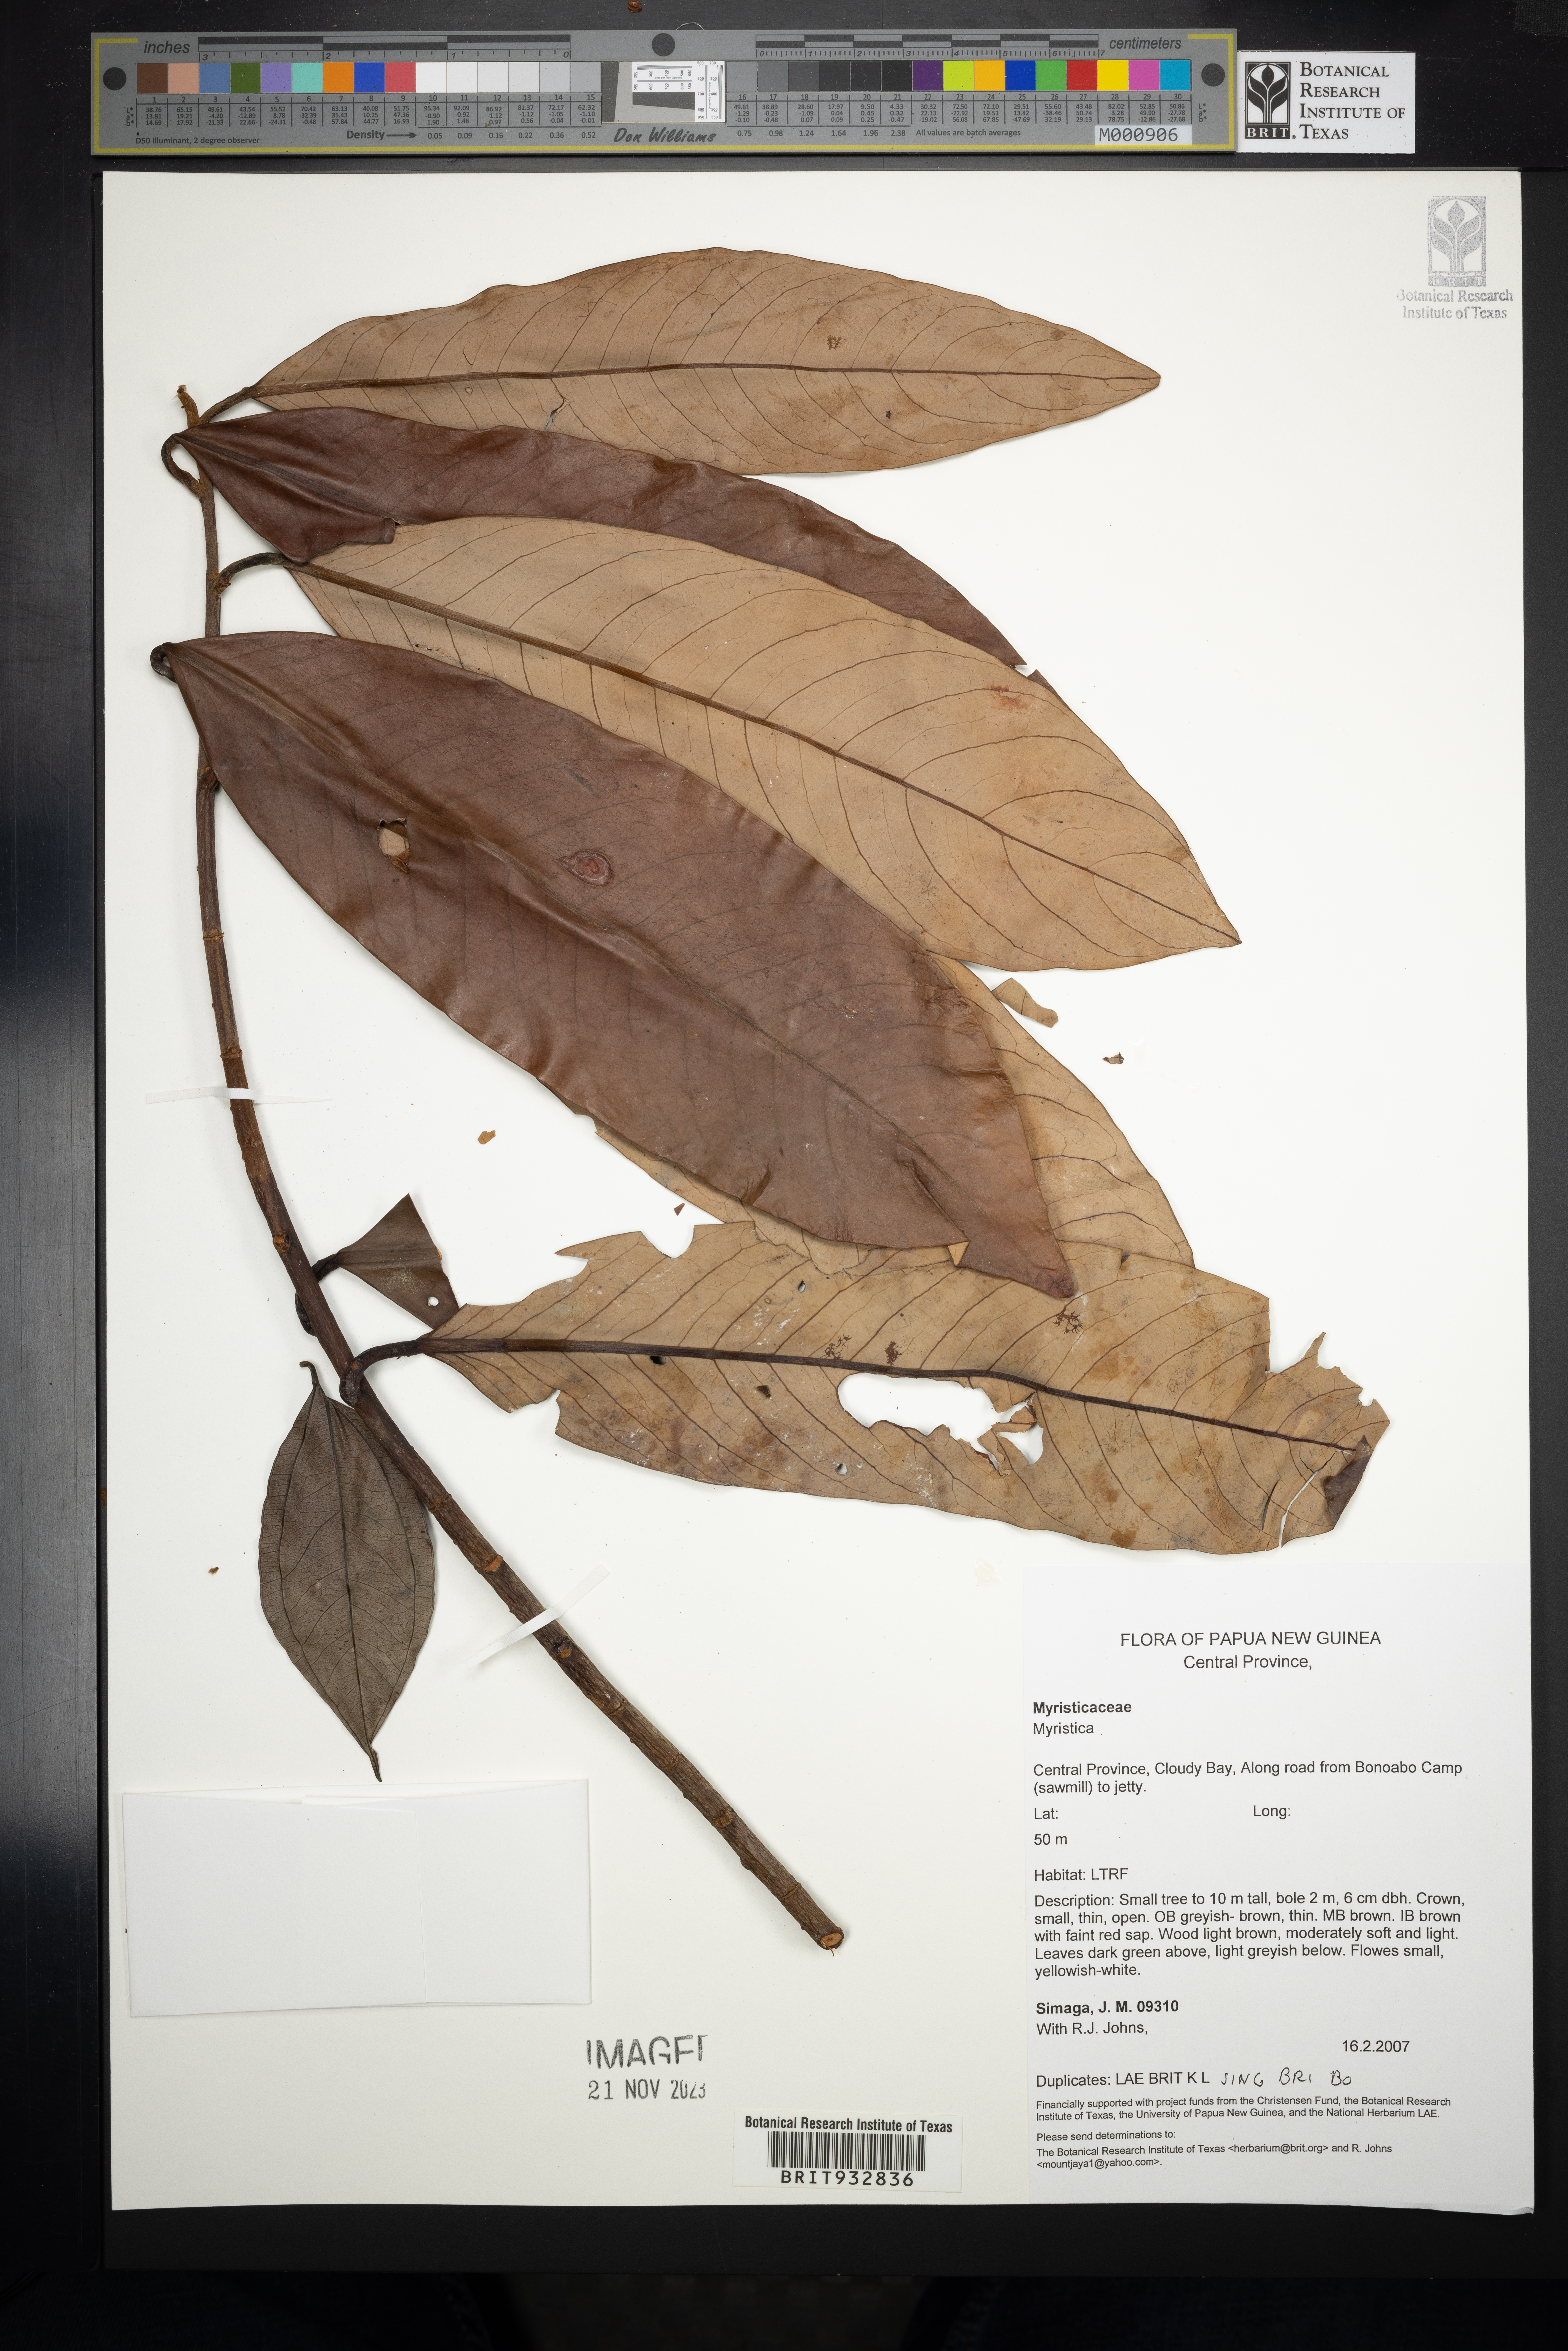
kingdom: Plantae
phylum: Tracheophyta
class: Magnoliopsida
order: Magnoliales
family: Myristicaceae
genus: Myristica
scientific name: Myristica
